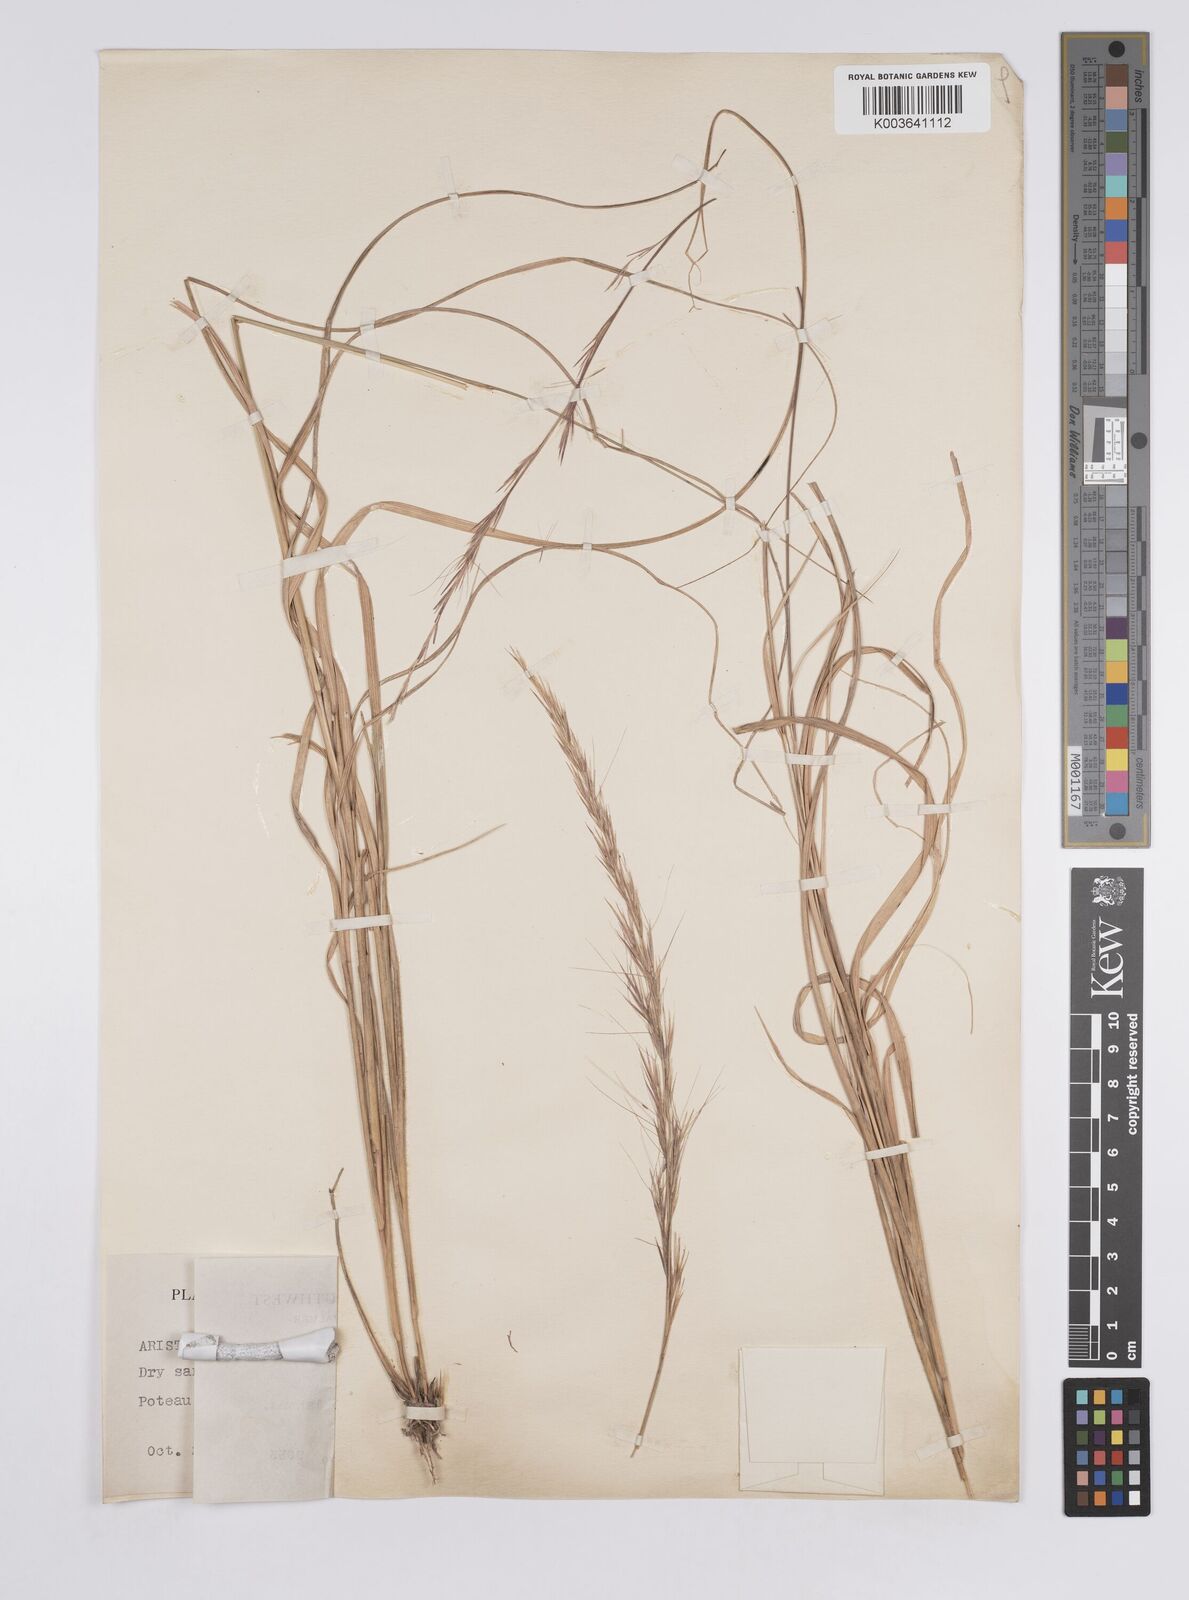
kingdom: Plantae
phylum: Tracheophyta
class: Liliopsida
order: Poales
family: Poaceae
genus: Aristida
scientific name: Aristida purpurascens
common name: Arrow-feather
